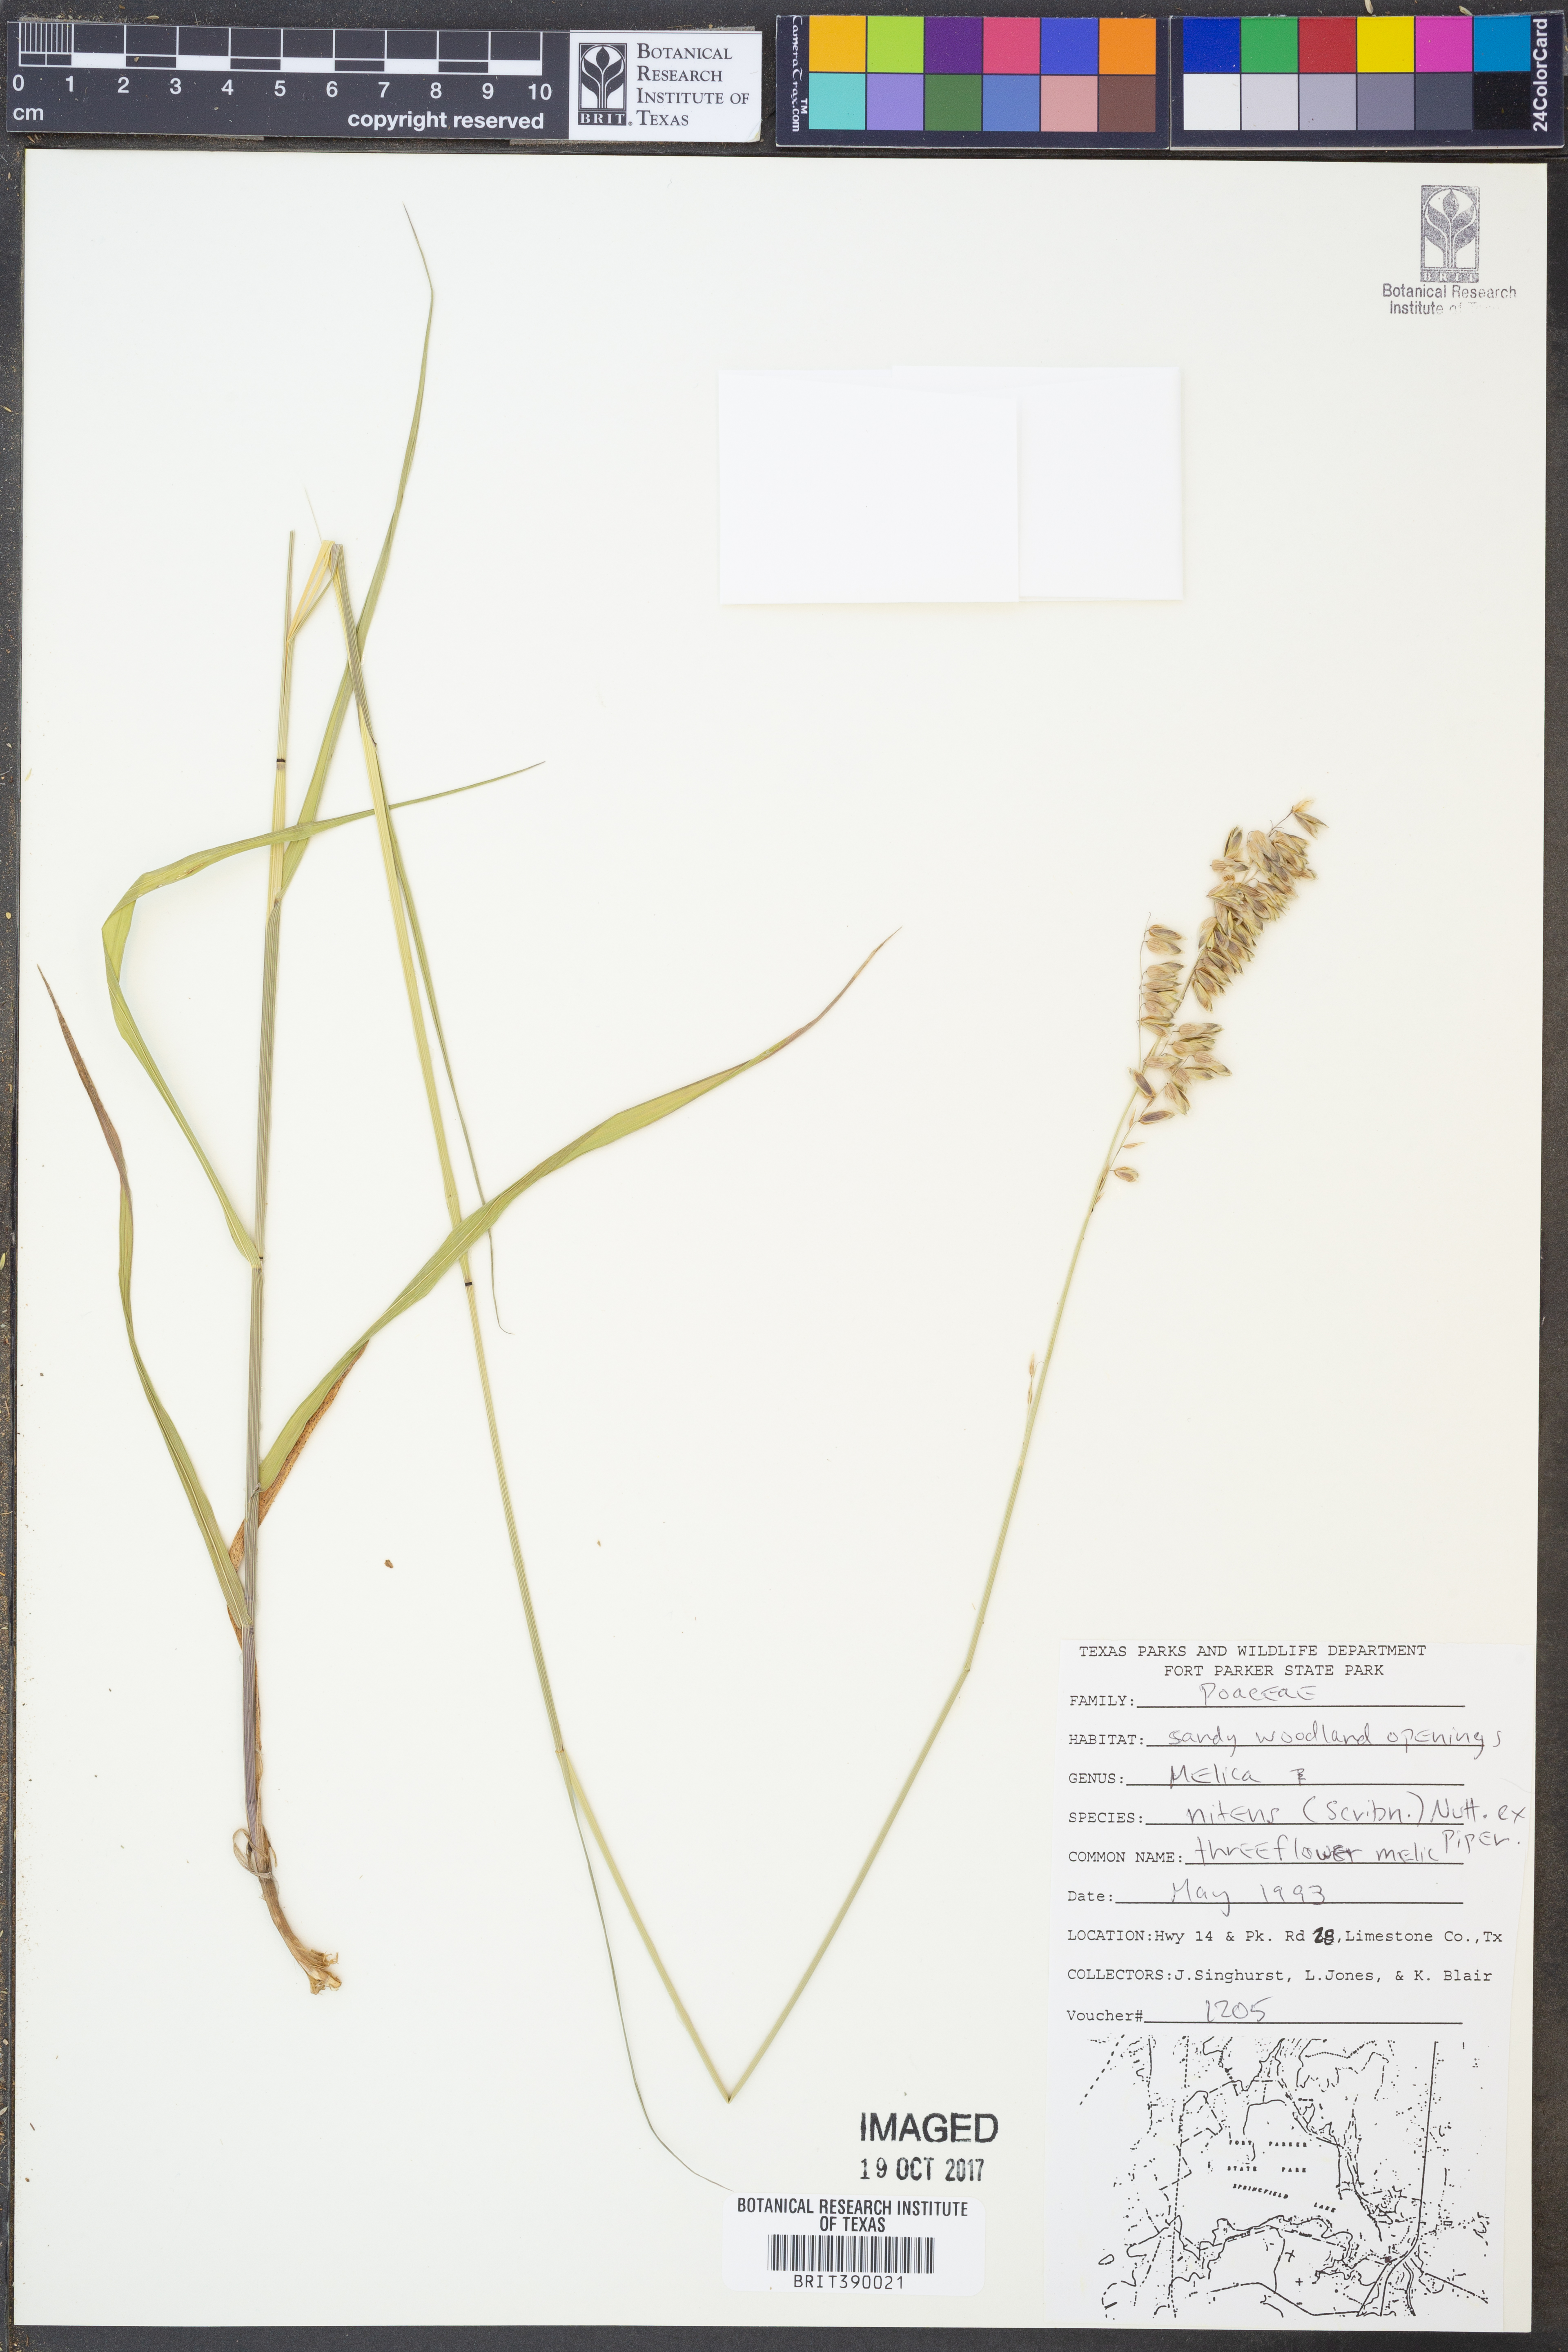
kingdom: Plantae
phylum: Tracheophyta
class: Liliopsida
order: Poales
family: Poaceae
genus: Melica
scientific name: Melica nitens
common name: Three-flower melic
